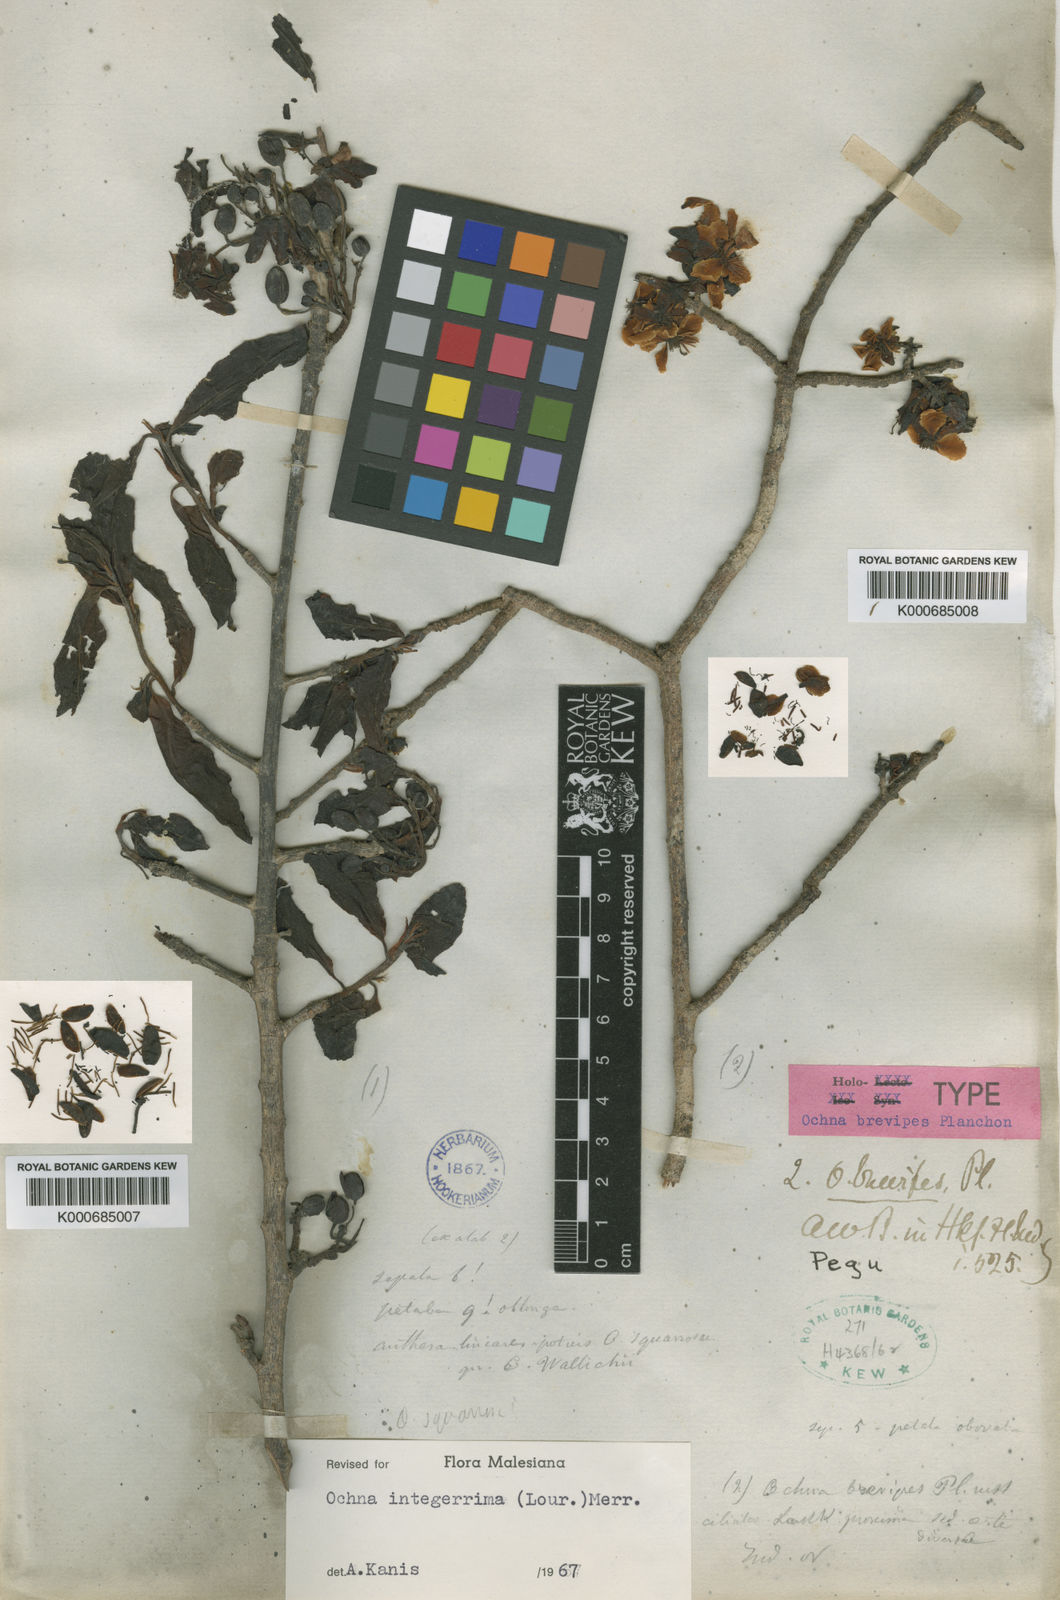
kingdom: Plantae
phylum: Tracheophyta
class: Magnoliopsida
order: Malpighiales
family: Ochnaceae
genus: Ochna
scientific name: Ochna integerrima
